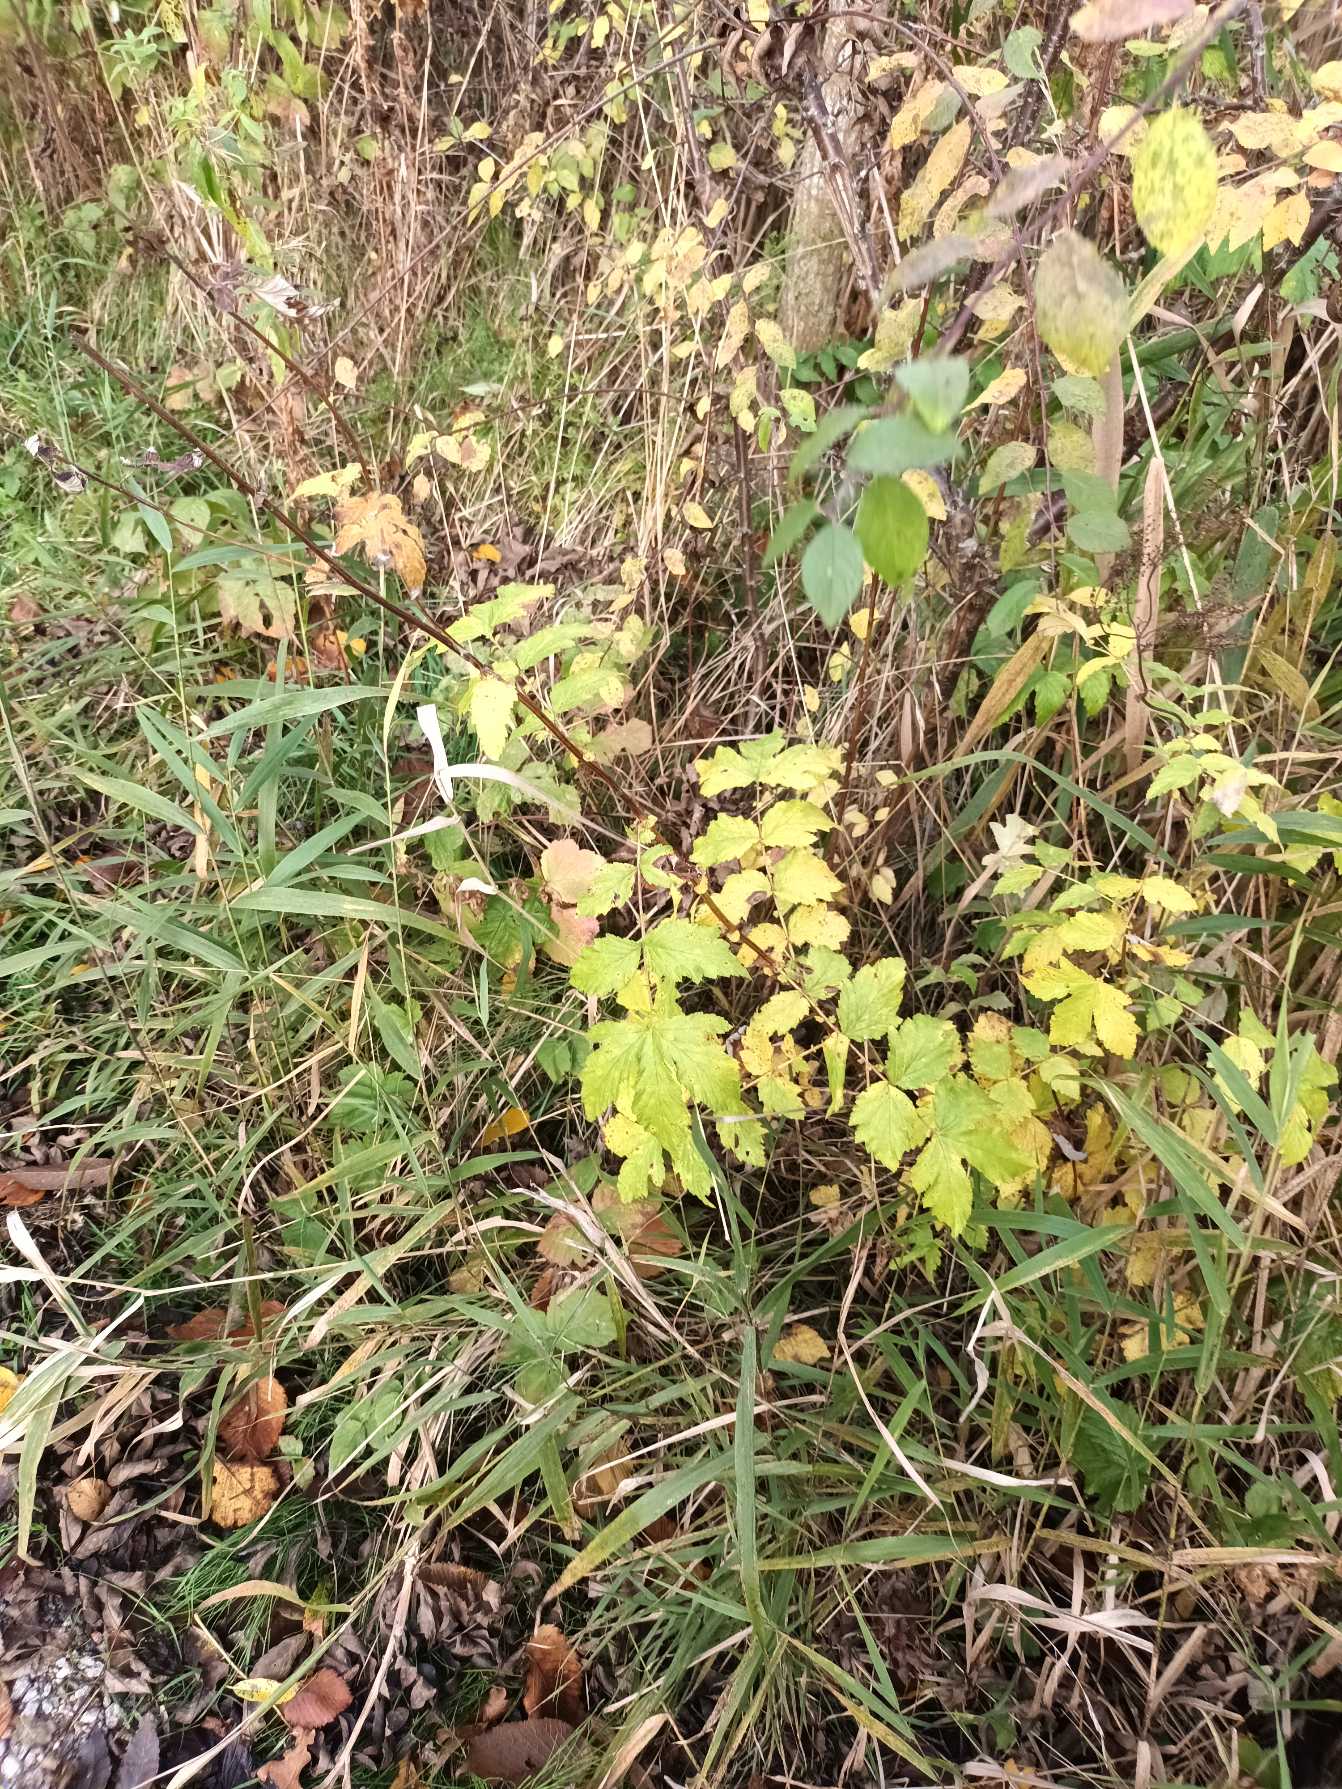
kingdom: Plantae
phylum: Tracheophyta
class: Magnoliopsida
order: Rosales
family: Rosaceae
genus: Filipendula
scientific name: Filipendula ulmaria
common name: Almindelig mjødurt
